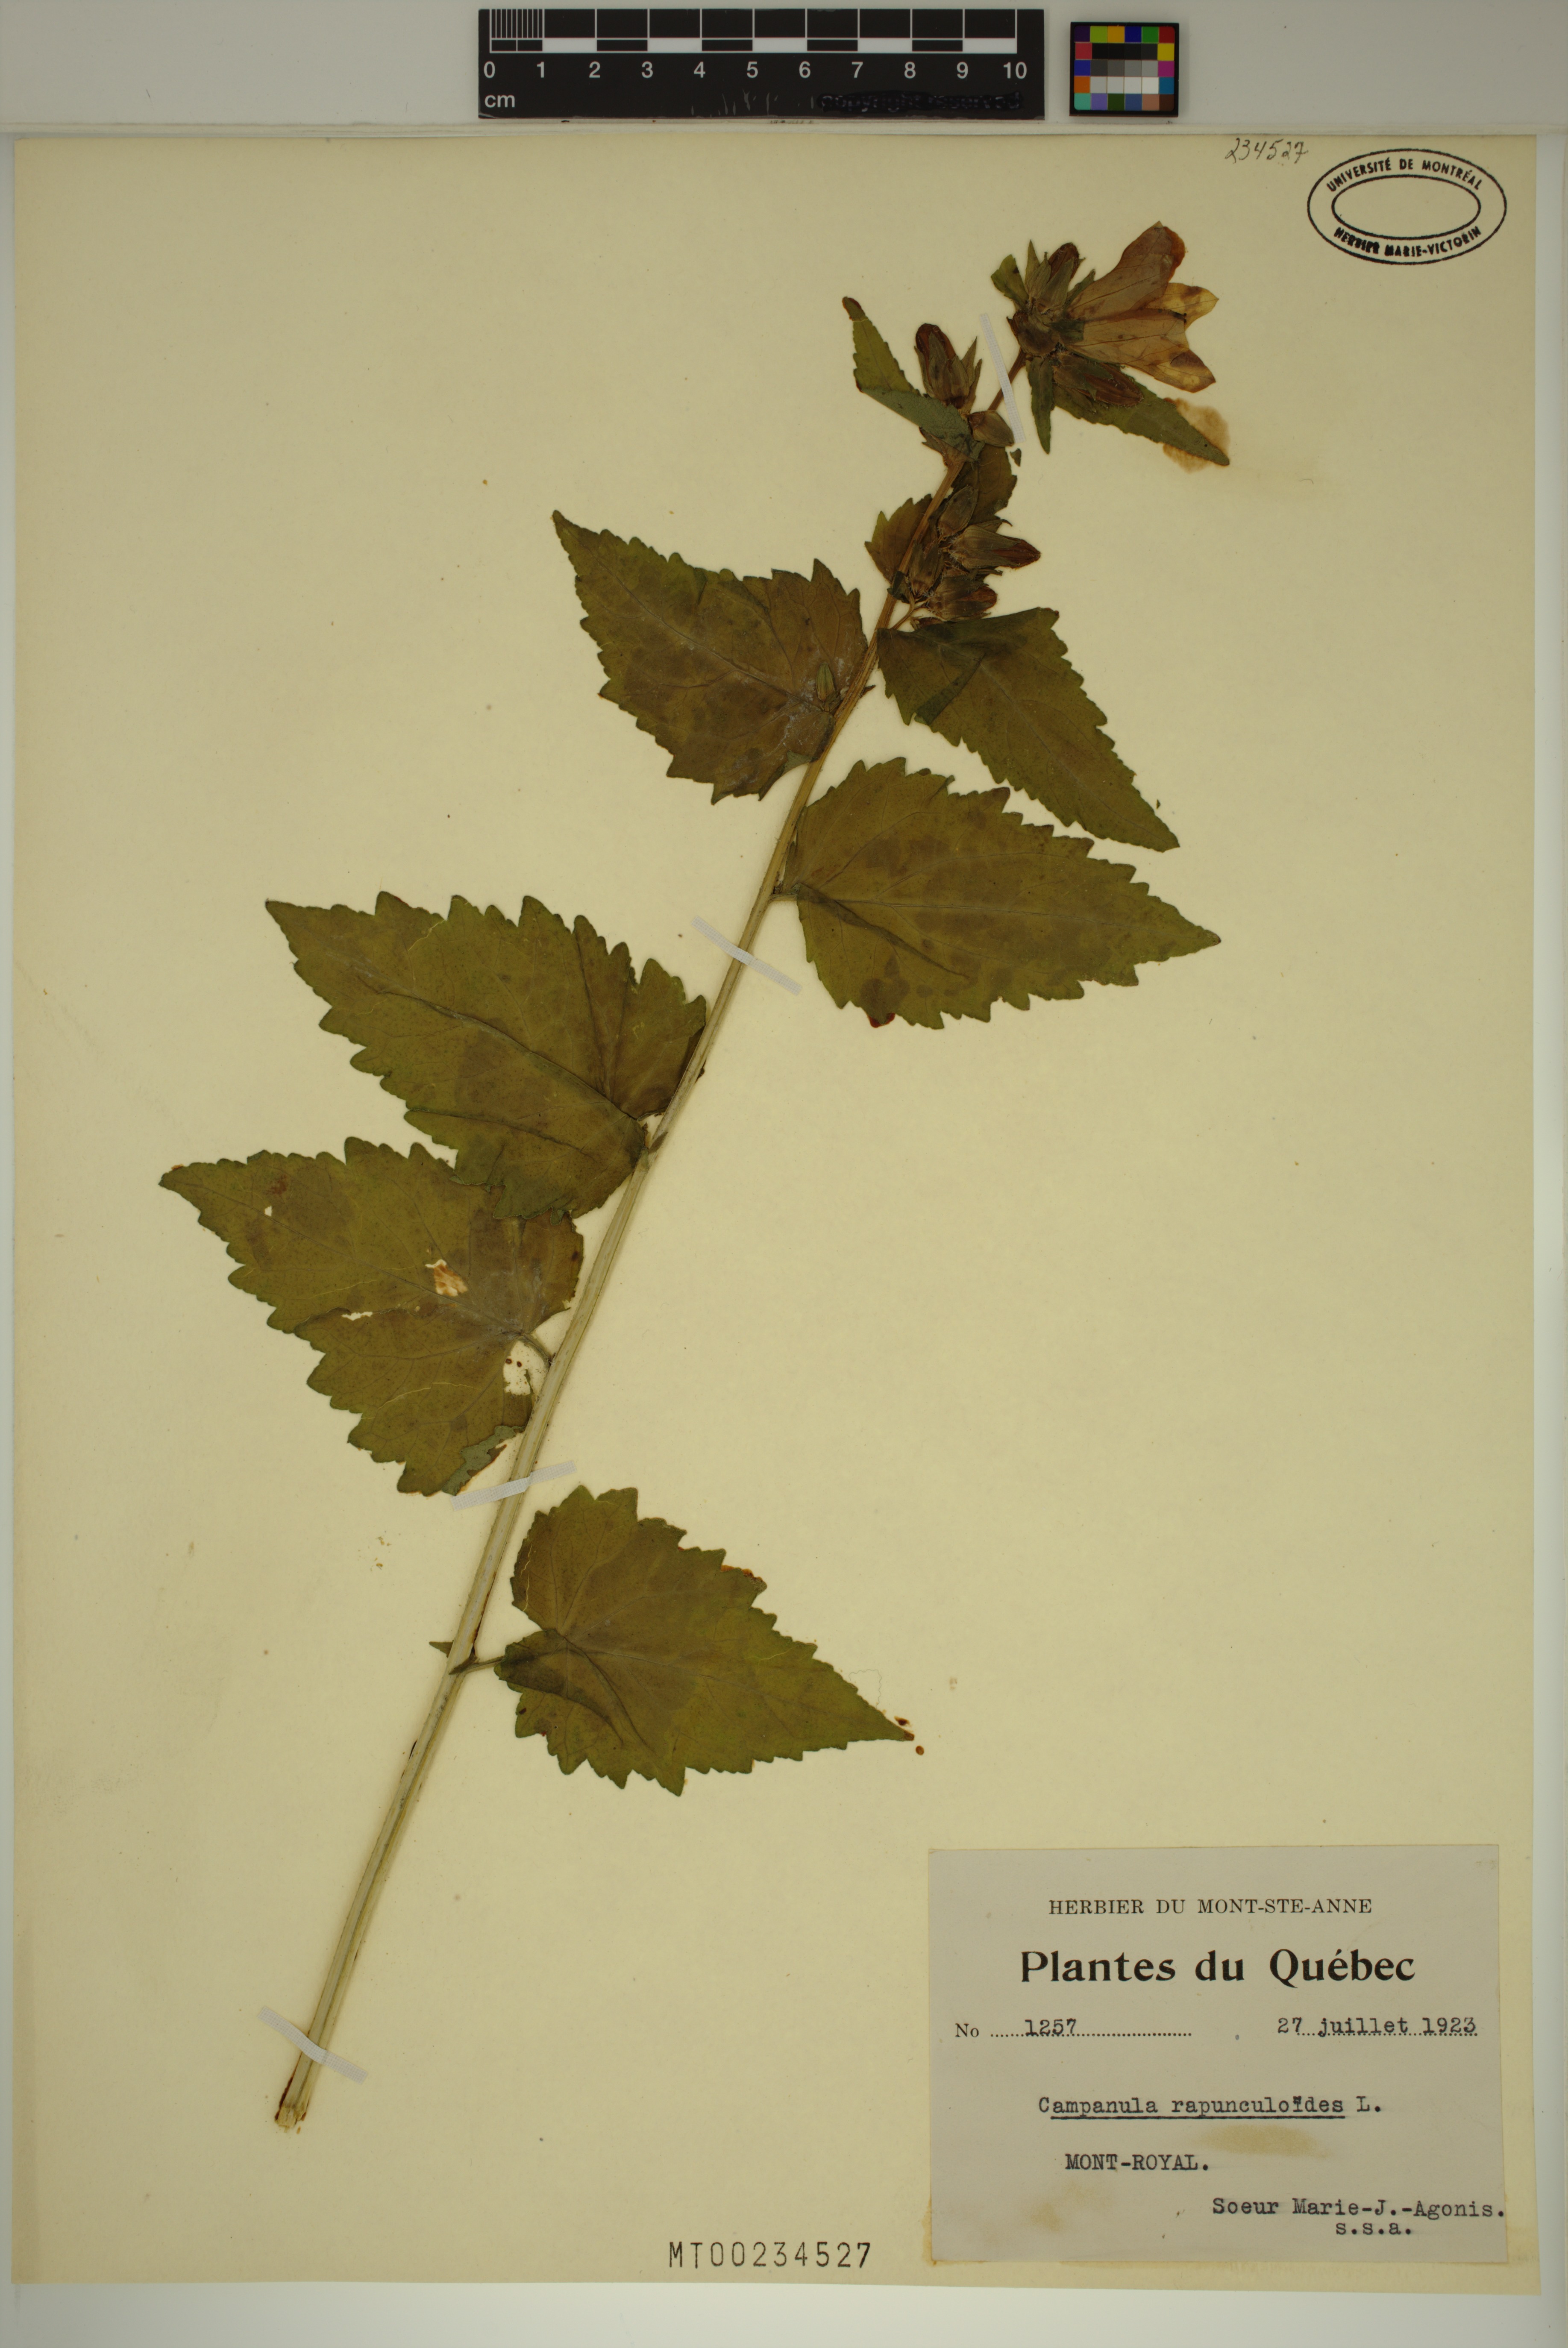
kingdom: Plantae
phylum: Tracheophyta
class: Magnoliopsida
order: Asterales
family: Campanulaceae
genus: Campanula
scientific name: Campanula rapunculoides
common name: Creeping bellflower
